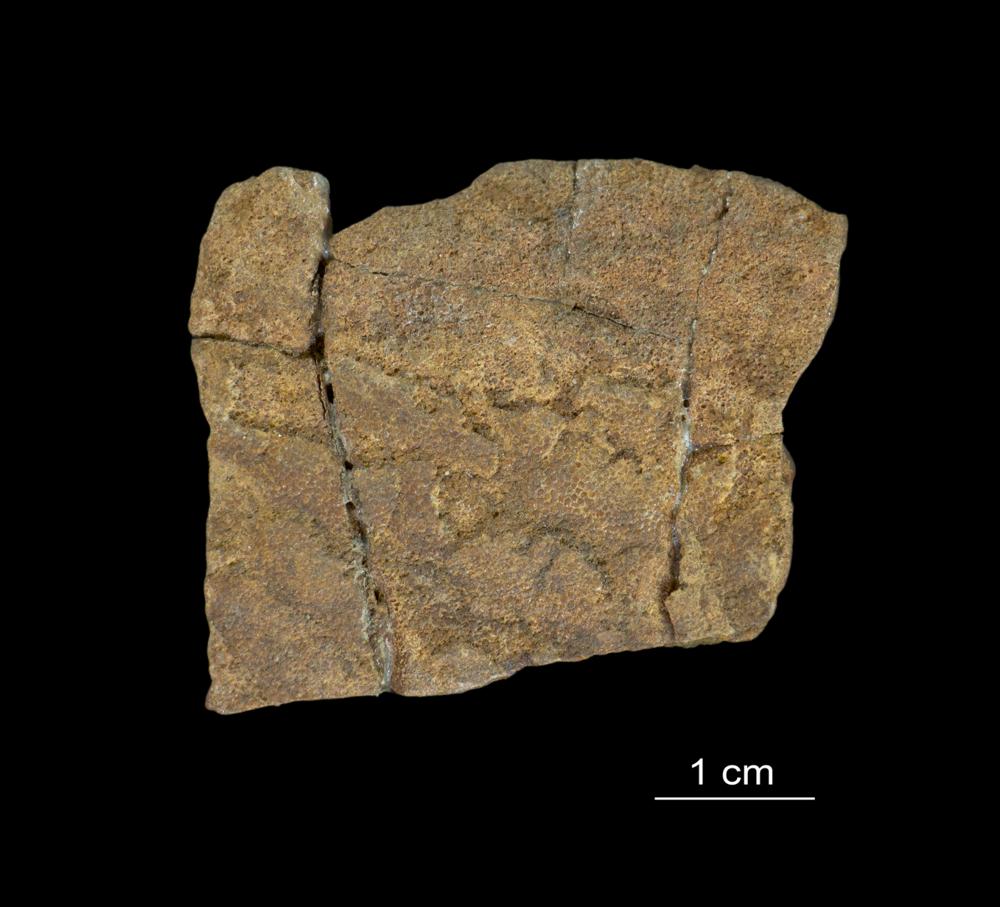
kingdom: Animalia
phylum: Chordata
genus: Psammolepis
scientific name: Psammolepis
